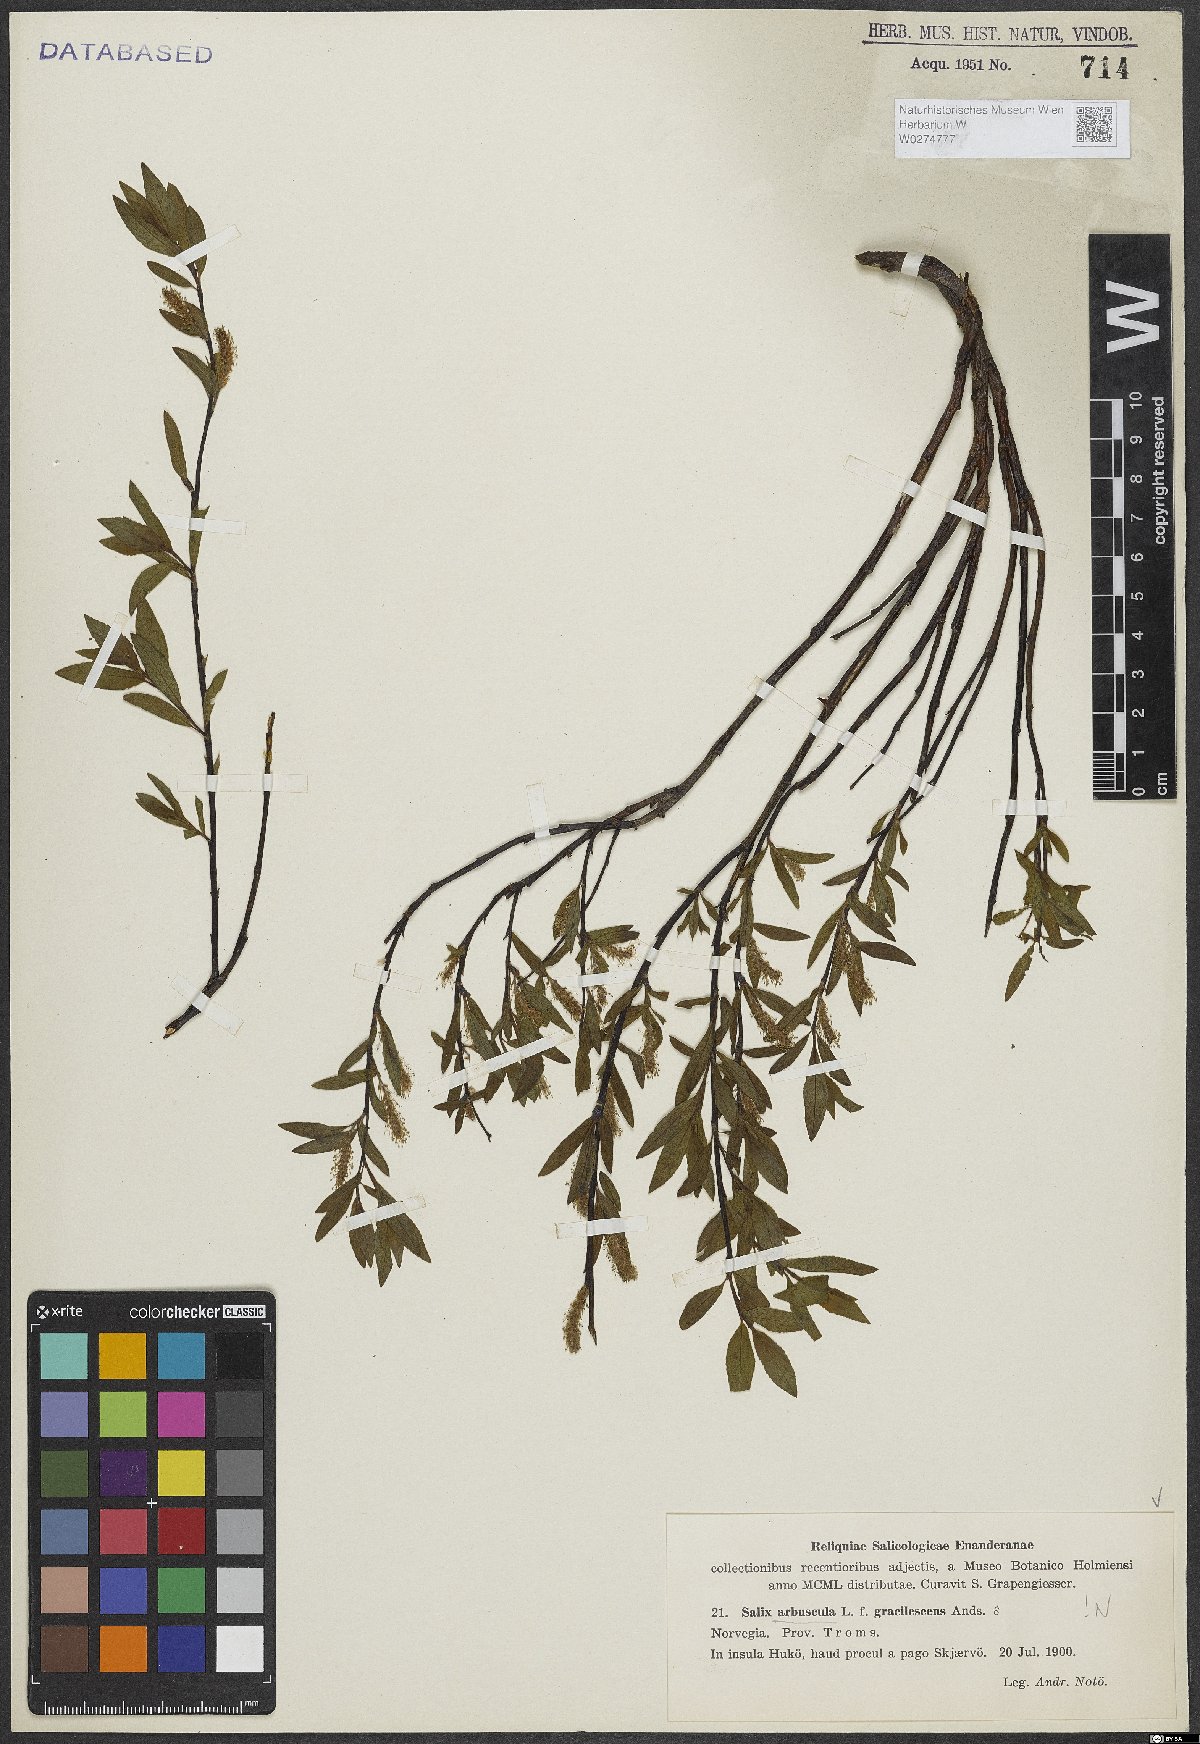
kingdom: Plantae
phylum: Tracheophyta
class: Magnoliopsida
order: Malpighiales
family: Salicaceae
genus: Salix
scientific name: Salix arbuscula
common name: Mountain willow
